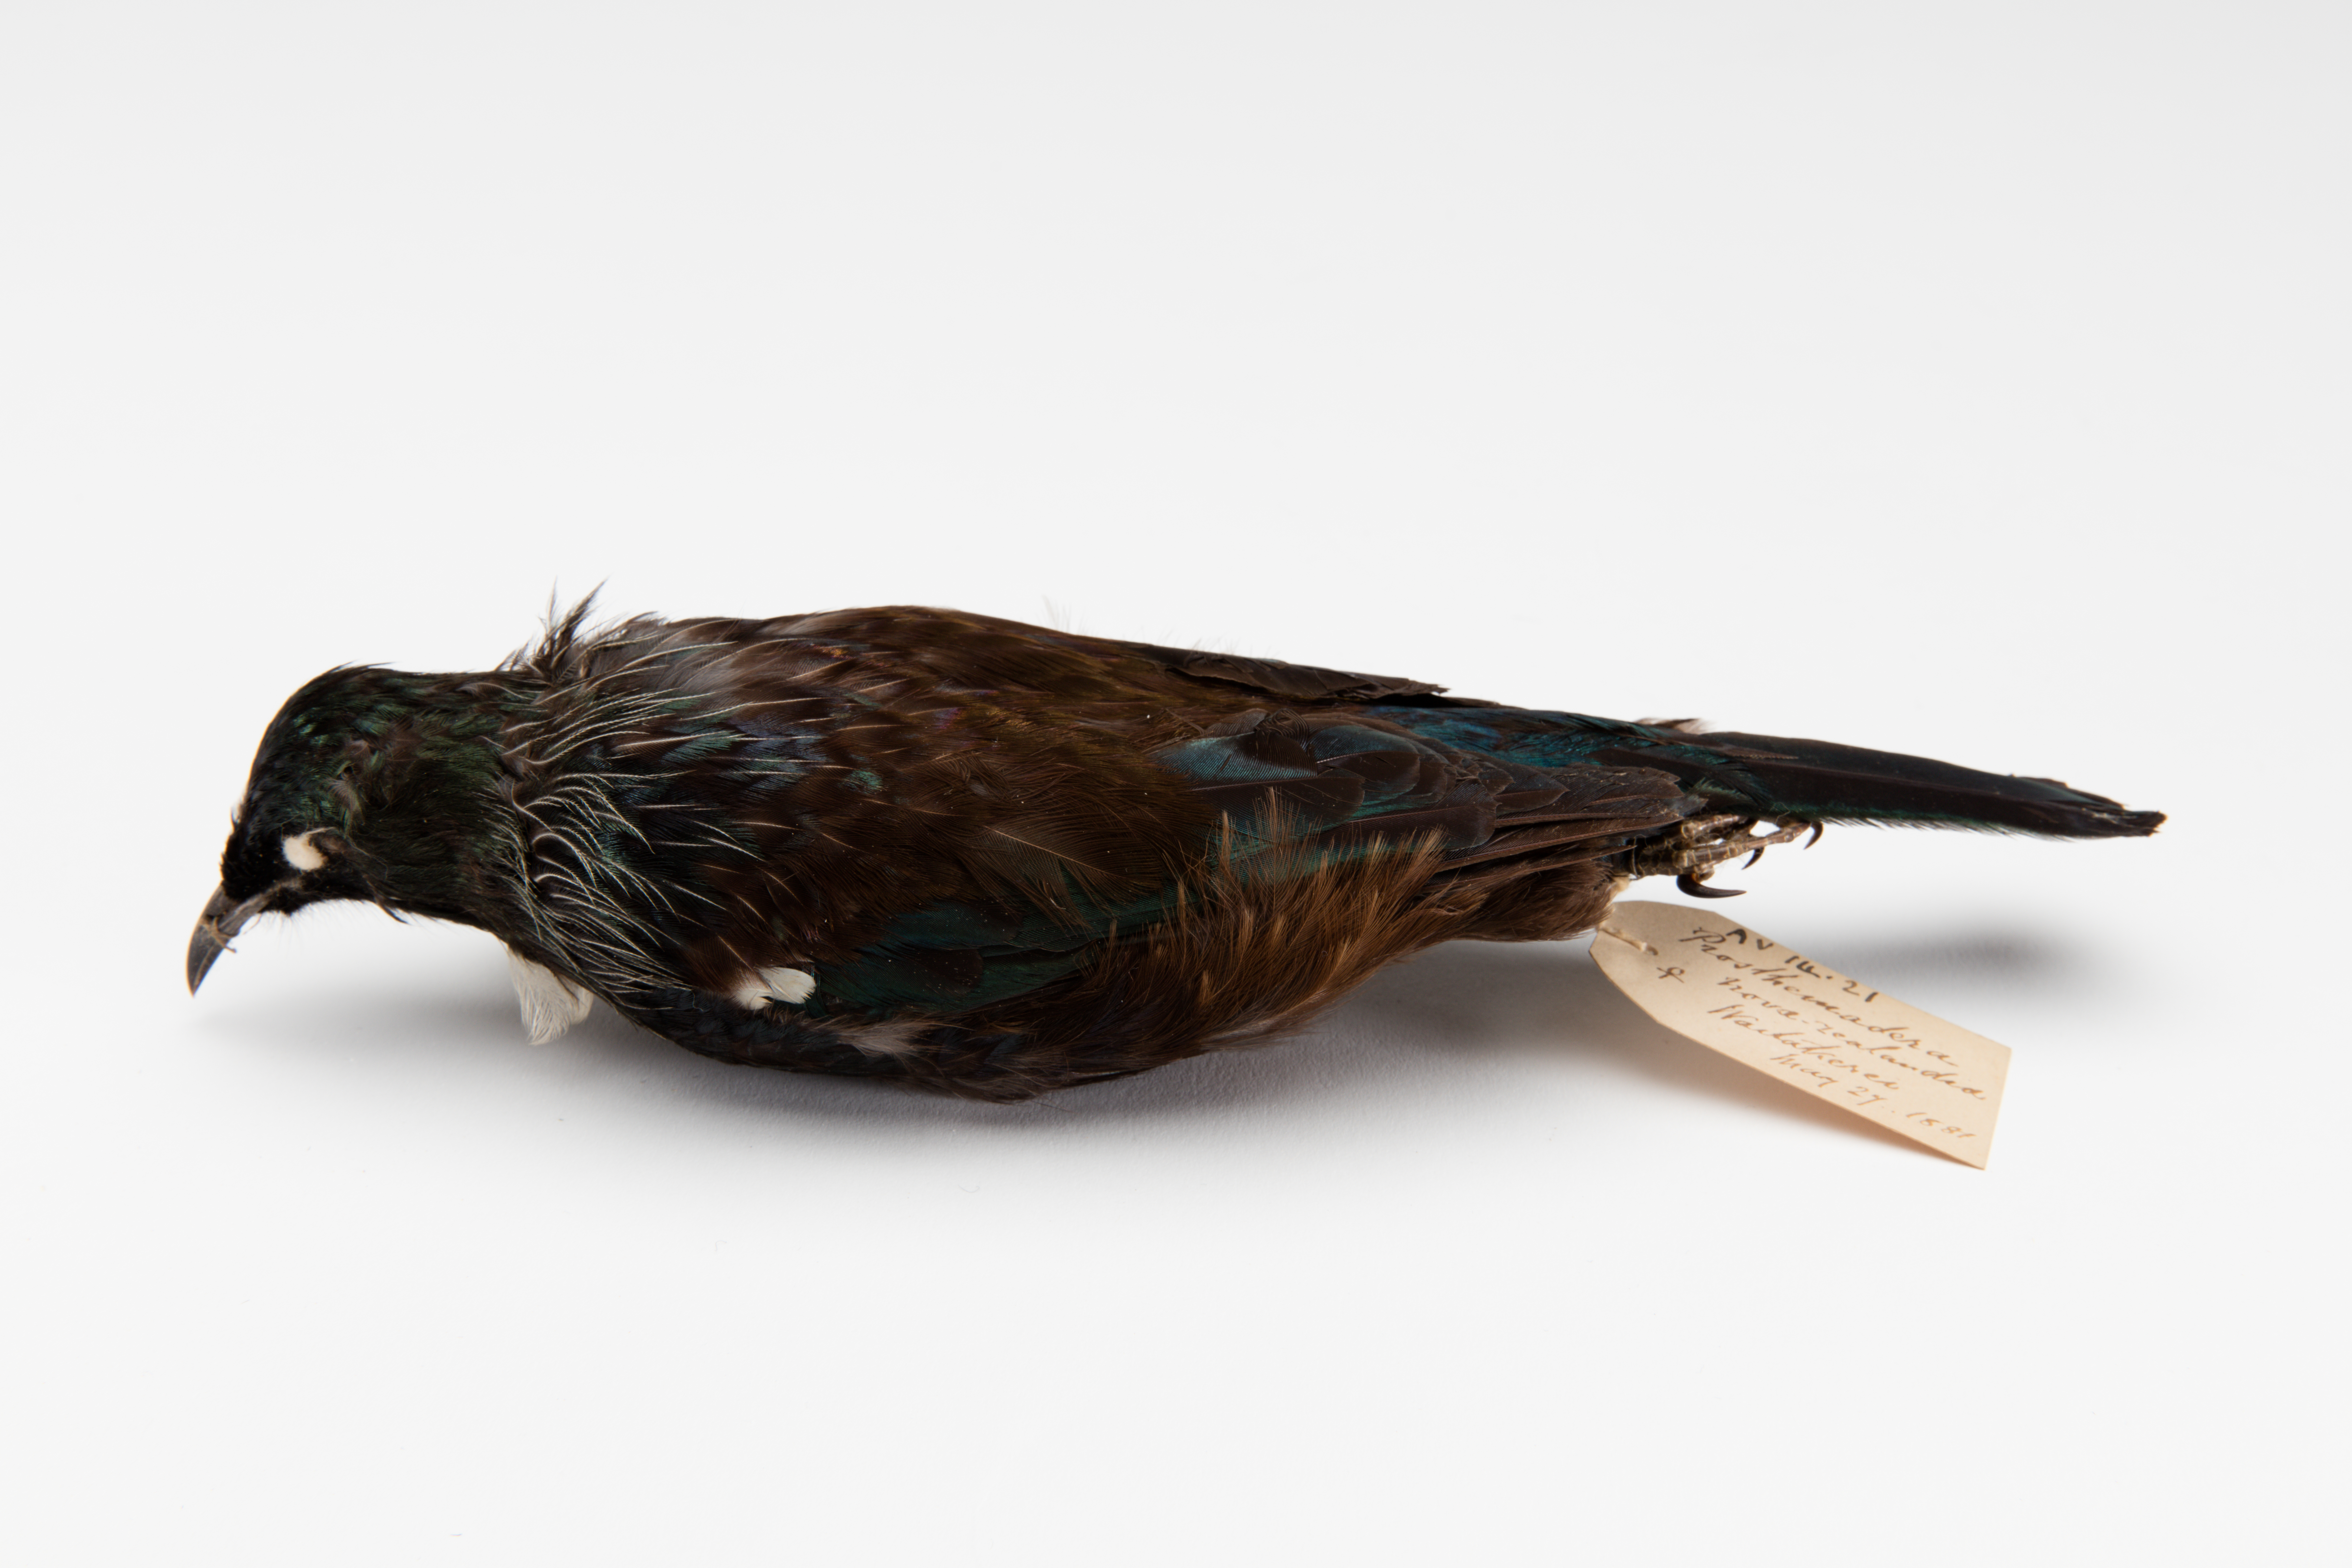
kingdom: Animalia
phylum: Chordata
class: Aves
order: Passeriformes
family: Meliphagidae
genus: Prosthemadera
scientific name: Prosthemadera novaeseelandiae
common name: Tui
